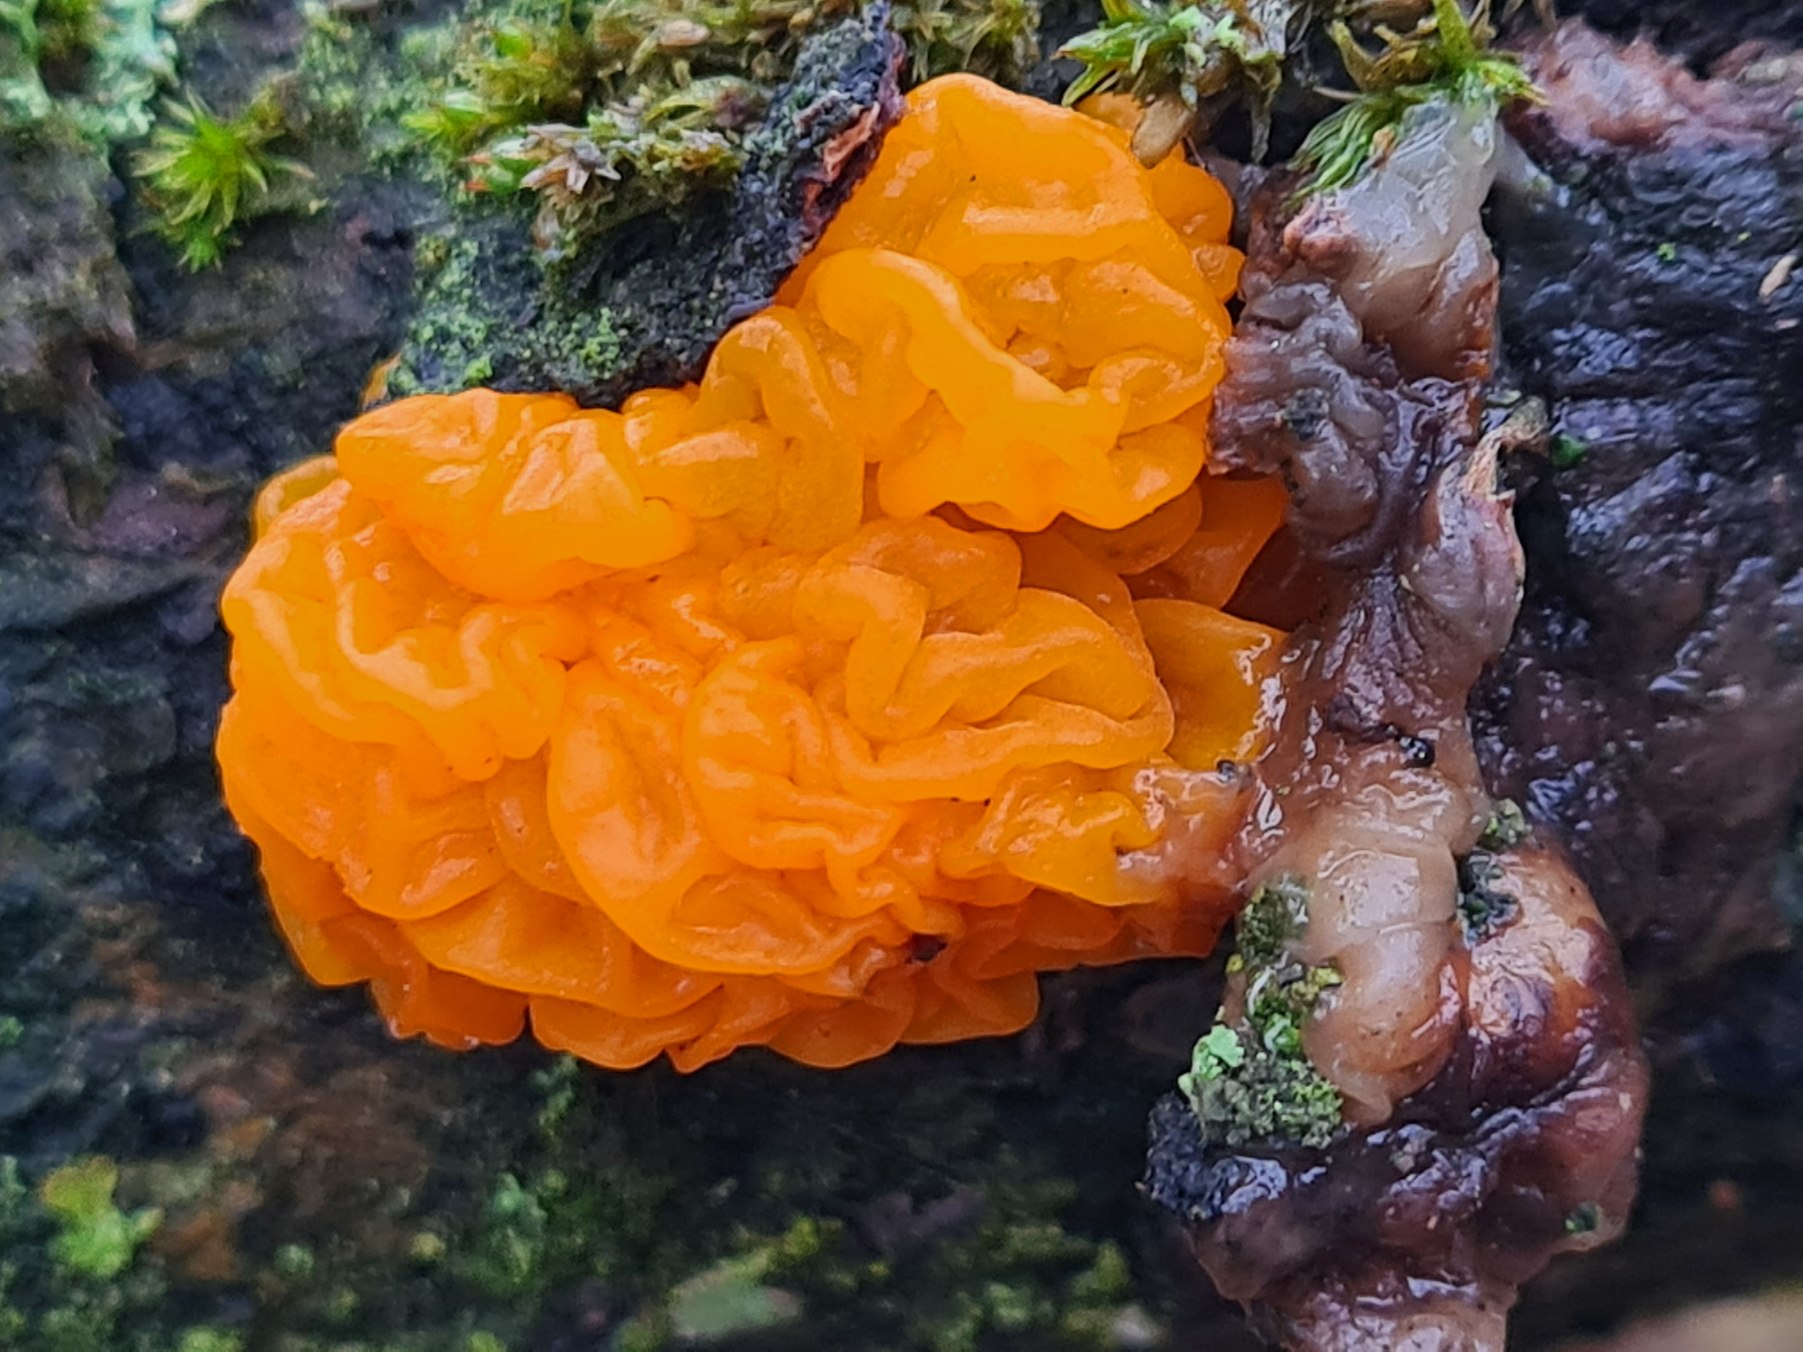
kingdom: Fungi
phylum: Basidiomycota
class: Tremellomycetes
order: Tremellales
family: Tremellaceae
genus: Tremella
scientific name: Tremella mesenterica
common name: Gul bævresvamp
